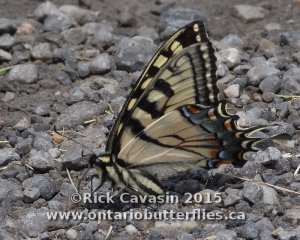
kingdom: Animalia
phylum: Arthropoda
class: Insecta
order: Lepidoptera
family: Papilionidae
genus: Pterourus
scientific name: Pterourus glaucus
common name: Eastern Tiger Swallowtail
